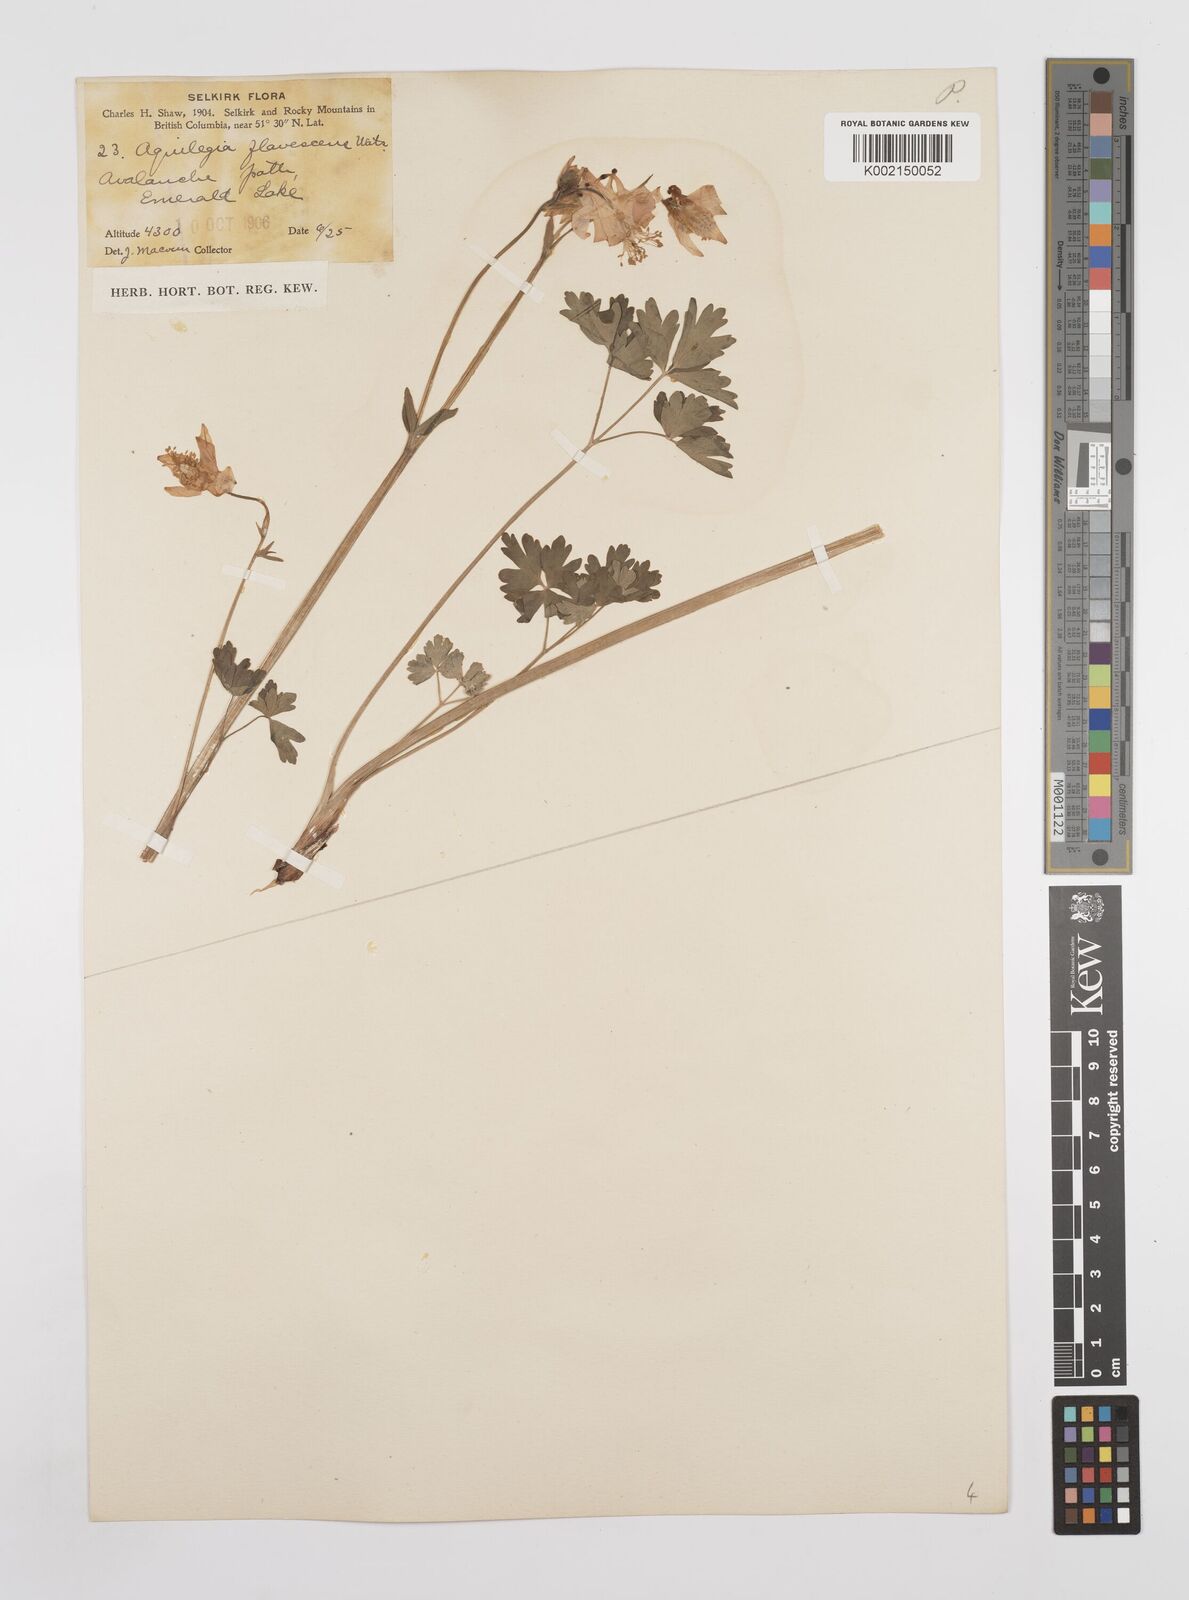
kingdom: Plantae
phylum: Tracheophyta
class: Magnoliopsida
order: Ranunculales
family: Ranunculaceae
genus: Aquilegia
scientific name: Aquilegia flavescens
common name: Yellow columbine
